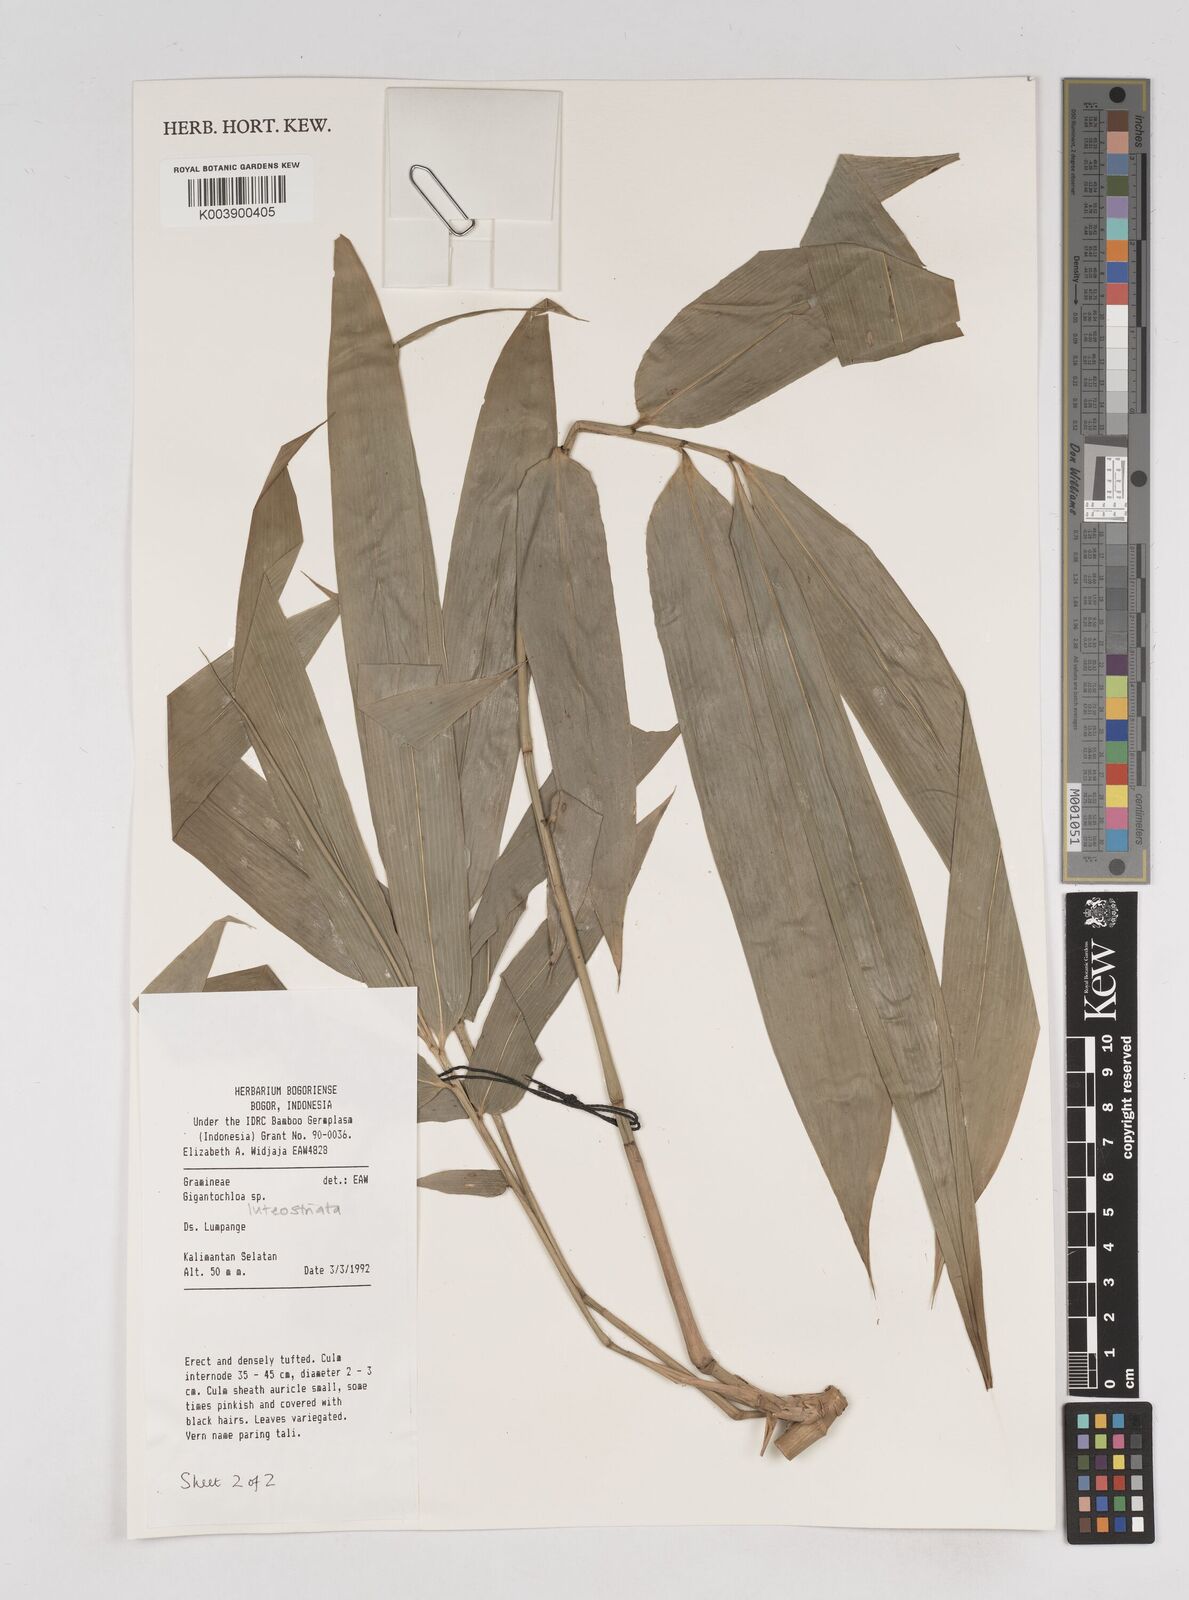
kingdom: Plantae
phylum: Tracheophyta
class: Liliopsida
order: Poales
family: Poaceae
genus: Gigantochloa
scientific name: Gigantochloa luteostriata
